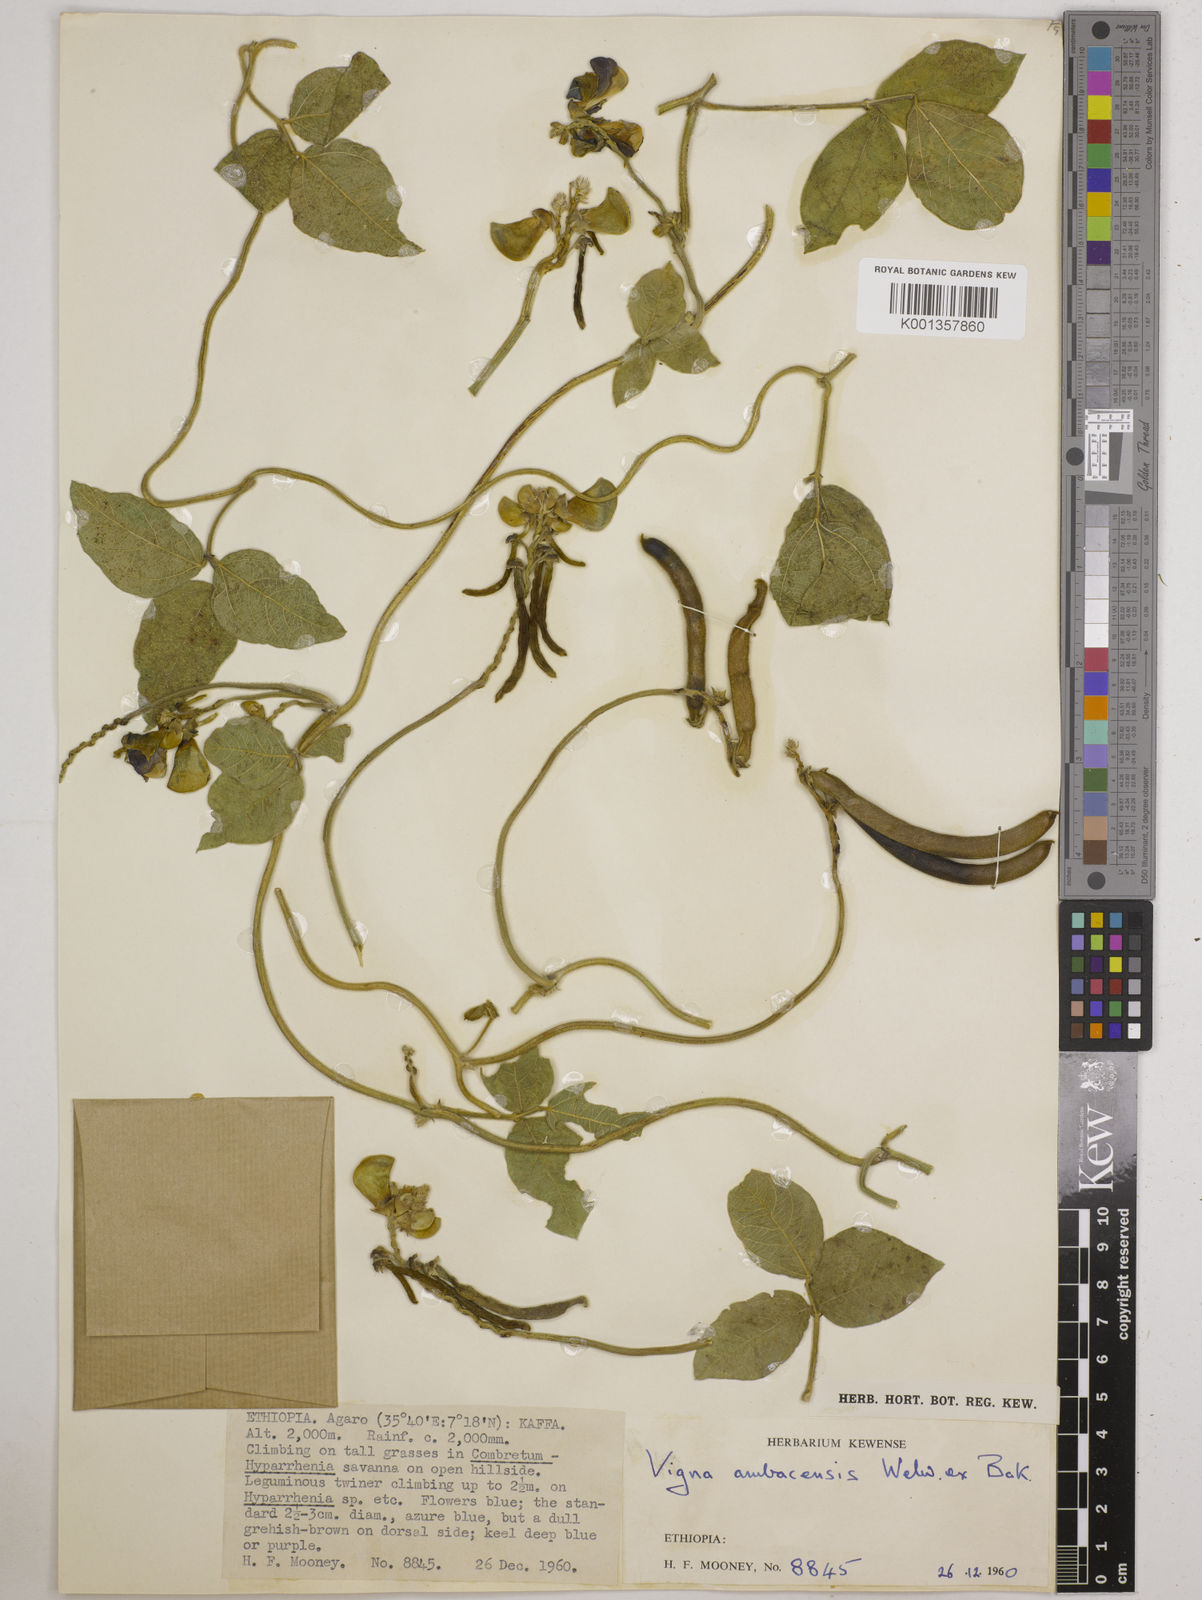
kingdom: Plantae
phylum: Tracheophyta
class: Magnoliopsida
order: Fabales
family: Fabaceae
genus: Vigna
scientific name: Vigna ambacensis
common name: Tsarkiyan zomo
